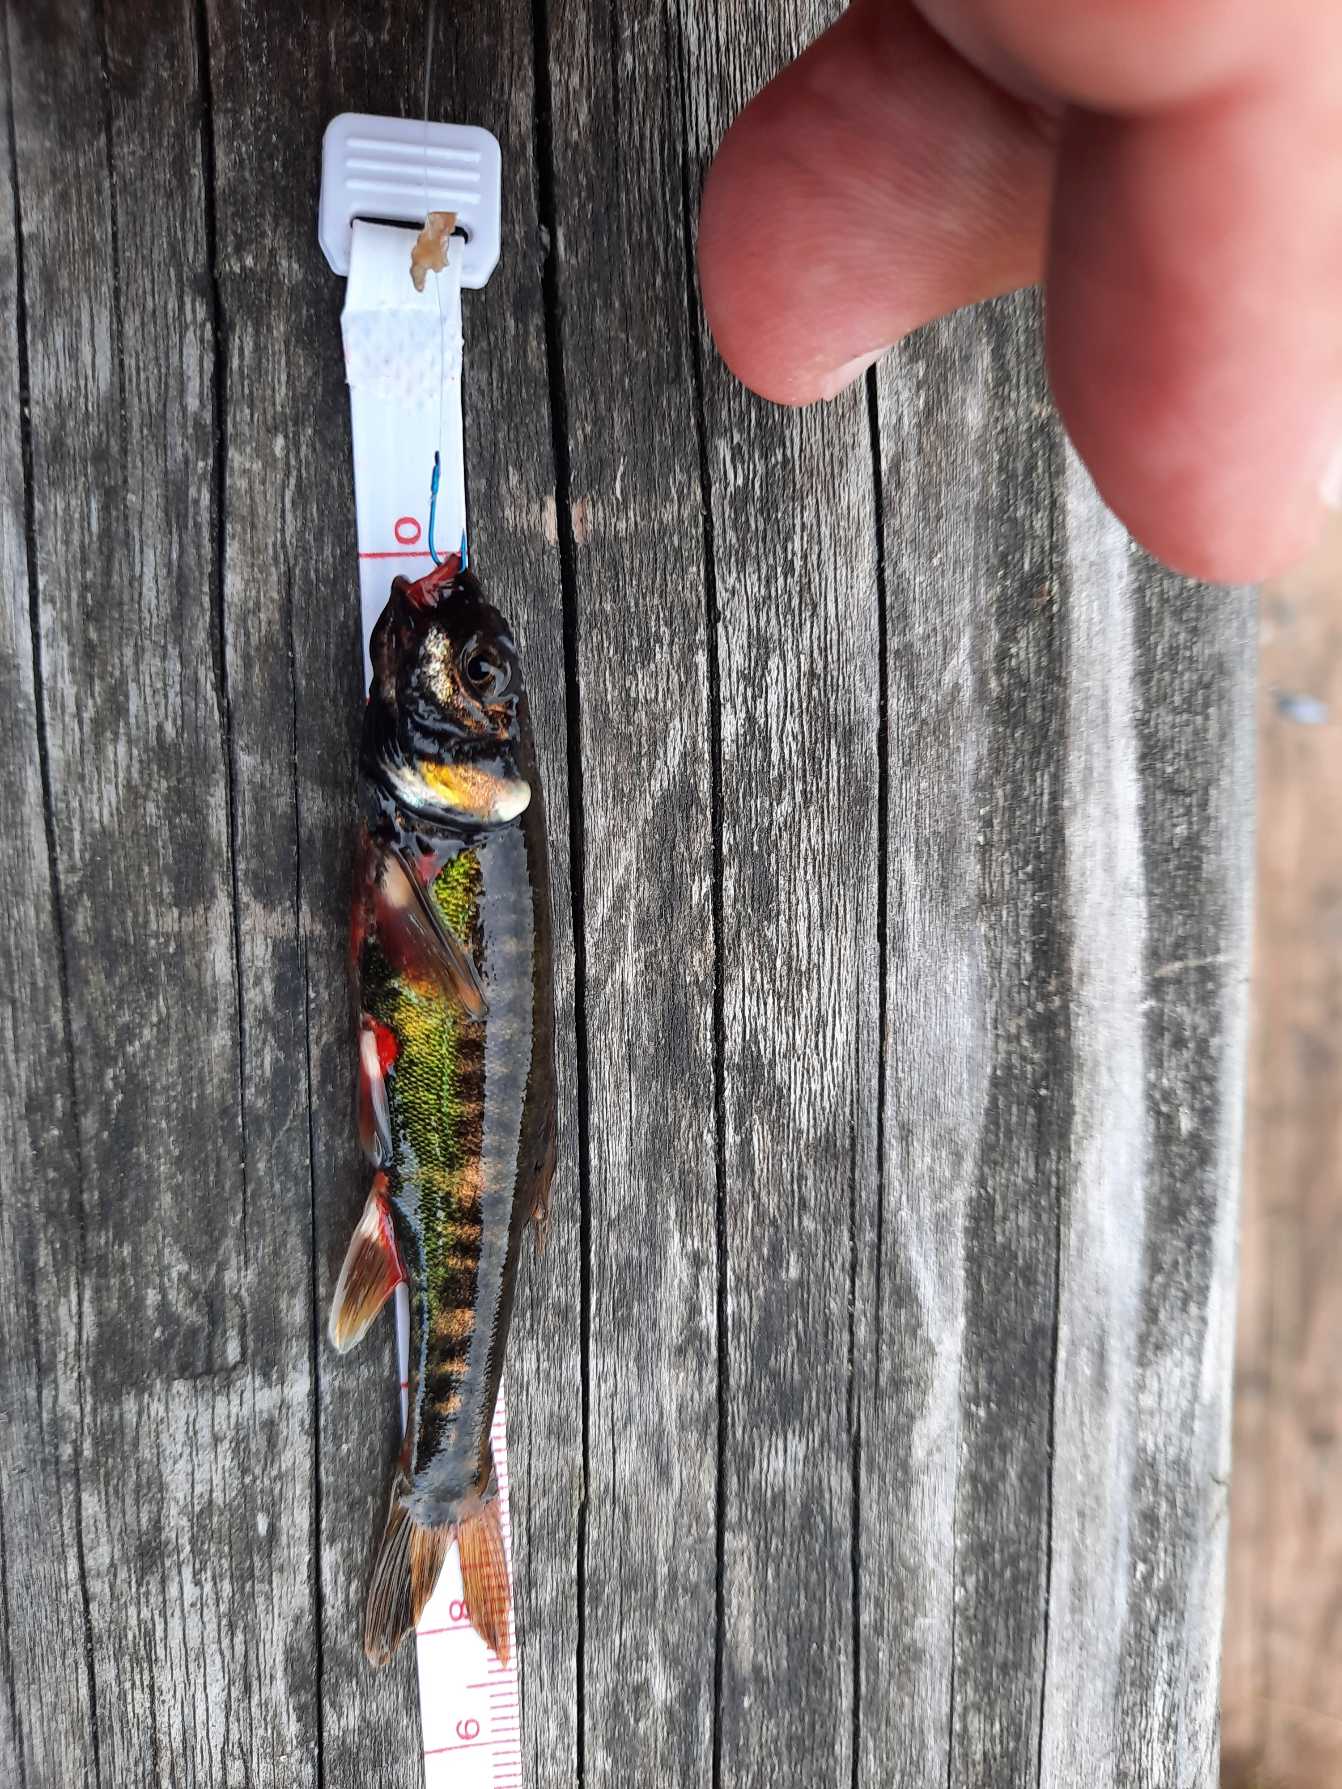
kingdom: Animalia
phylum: Chordata
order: Cypriniformes
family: Cyprinidae
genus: Phoxinus
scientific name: Phoxinus phoxinus
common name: Elritse
